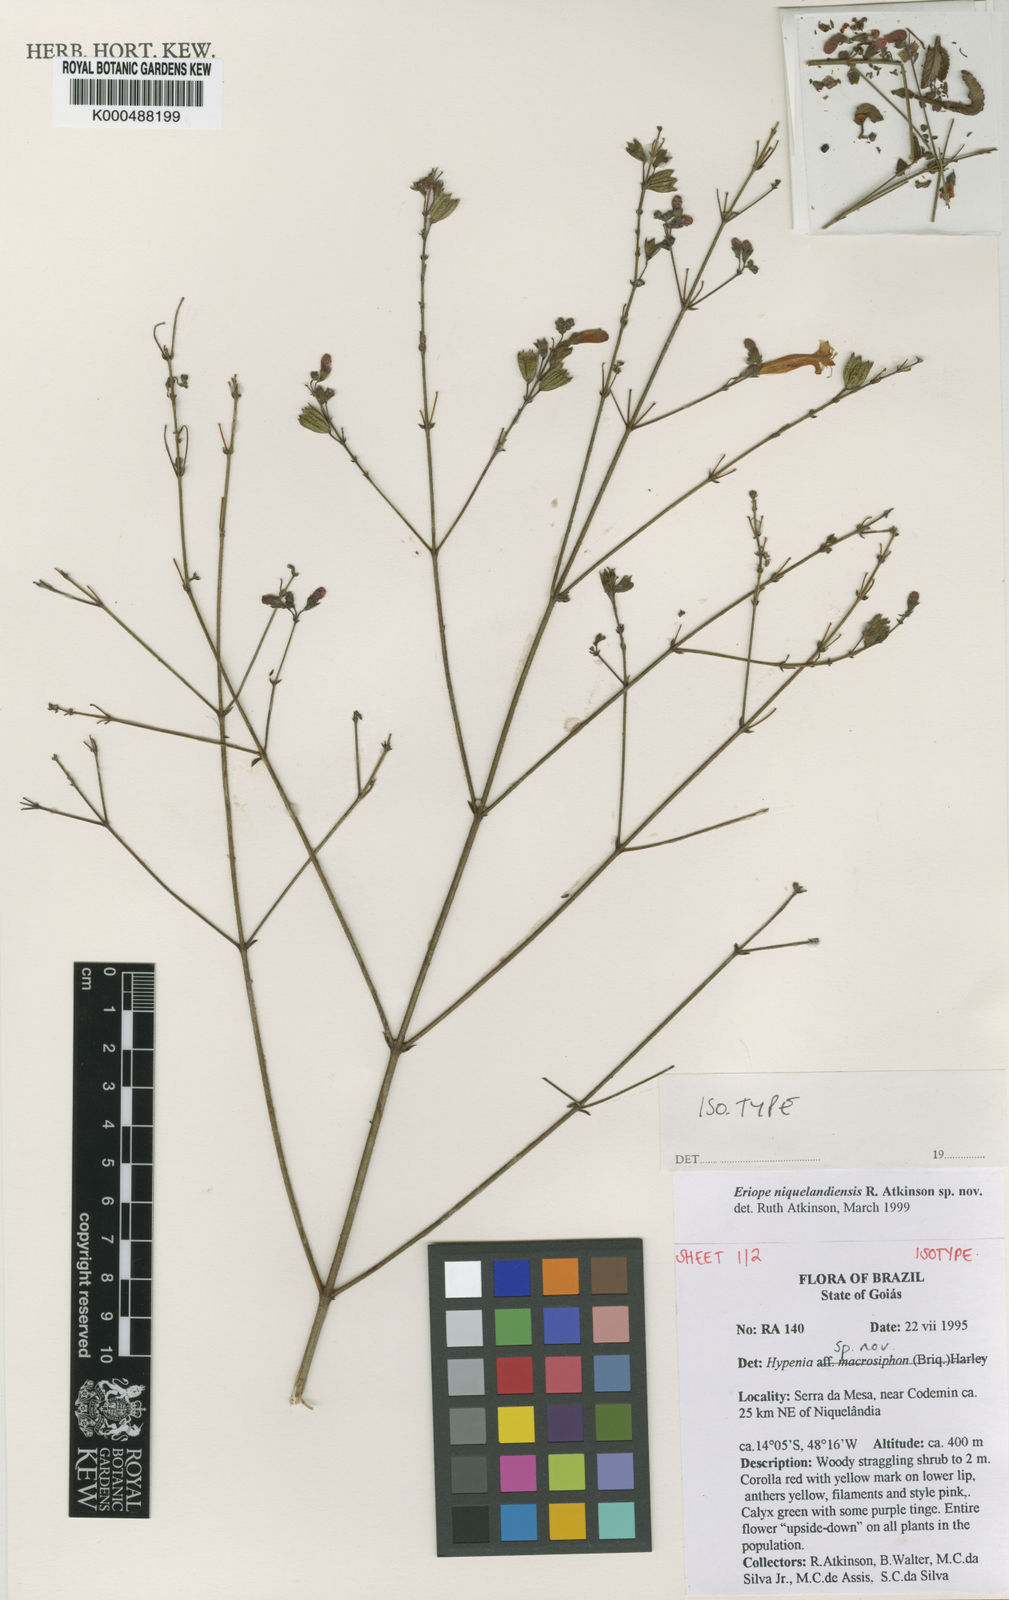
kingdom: Plantae
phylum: Tracheophyta
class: Magnoliopsida
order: Lamiales
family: Lamiaceae
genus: Hypenia
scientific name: Hypenia
